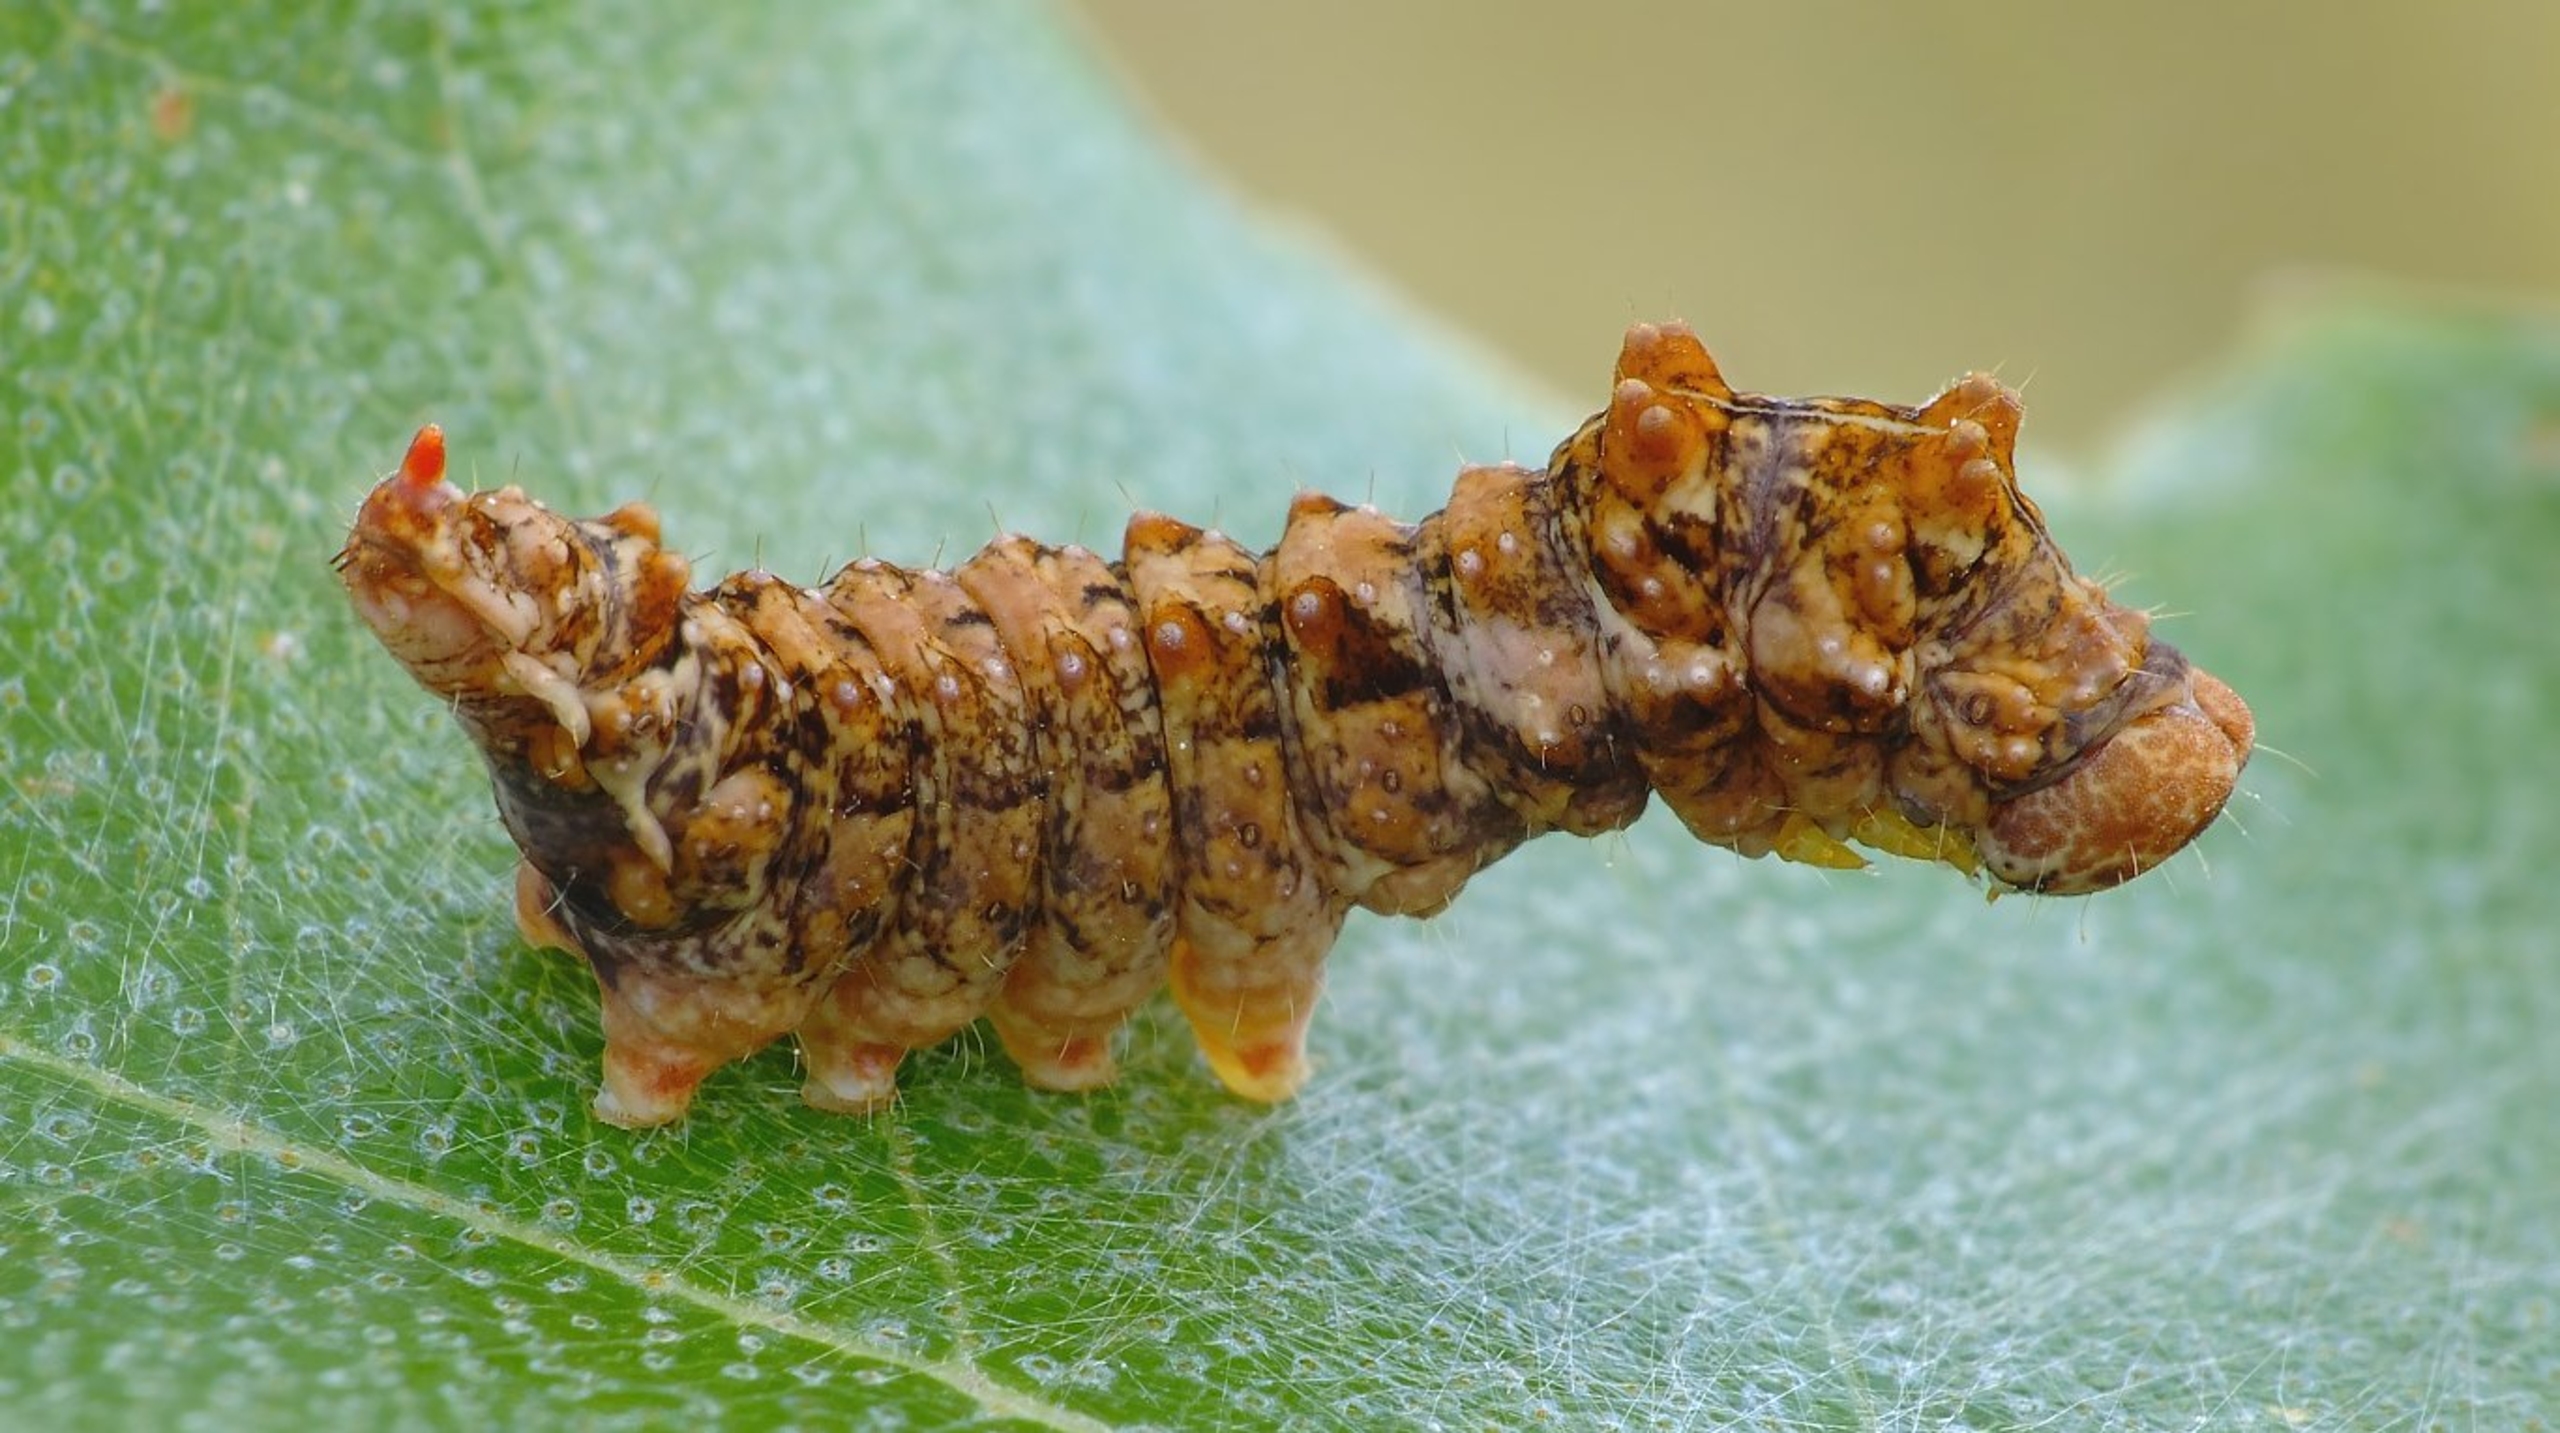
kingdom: Animalia
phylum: Arthropoda
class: Insecta
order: Lepidoptera
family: Drepanidae
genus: Falcaria
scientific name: Falcaria lacertinaria
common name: Tandet seglvinge
